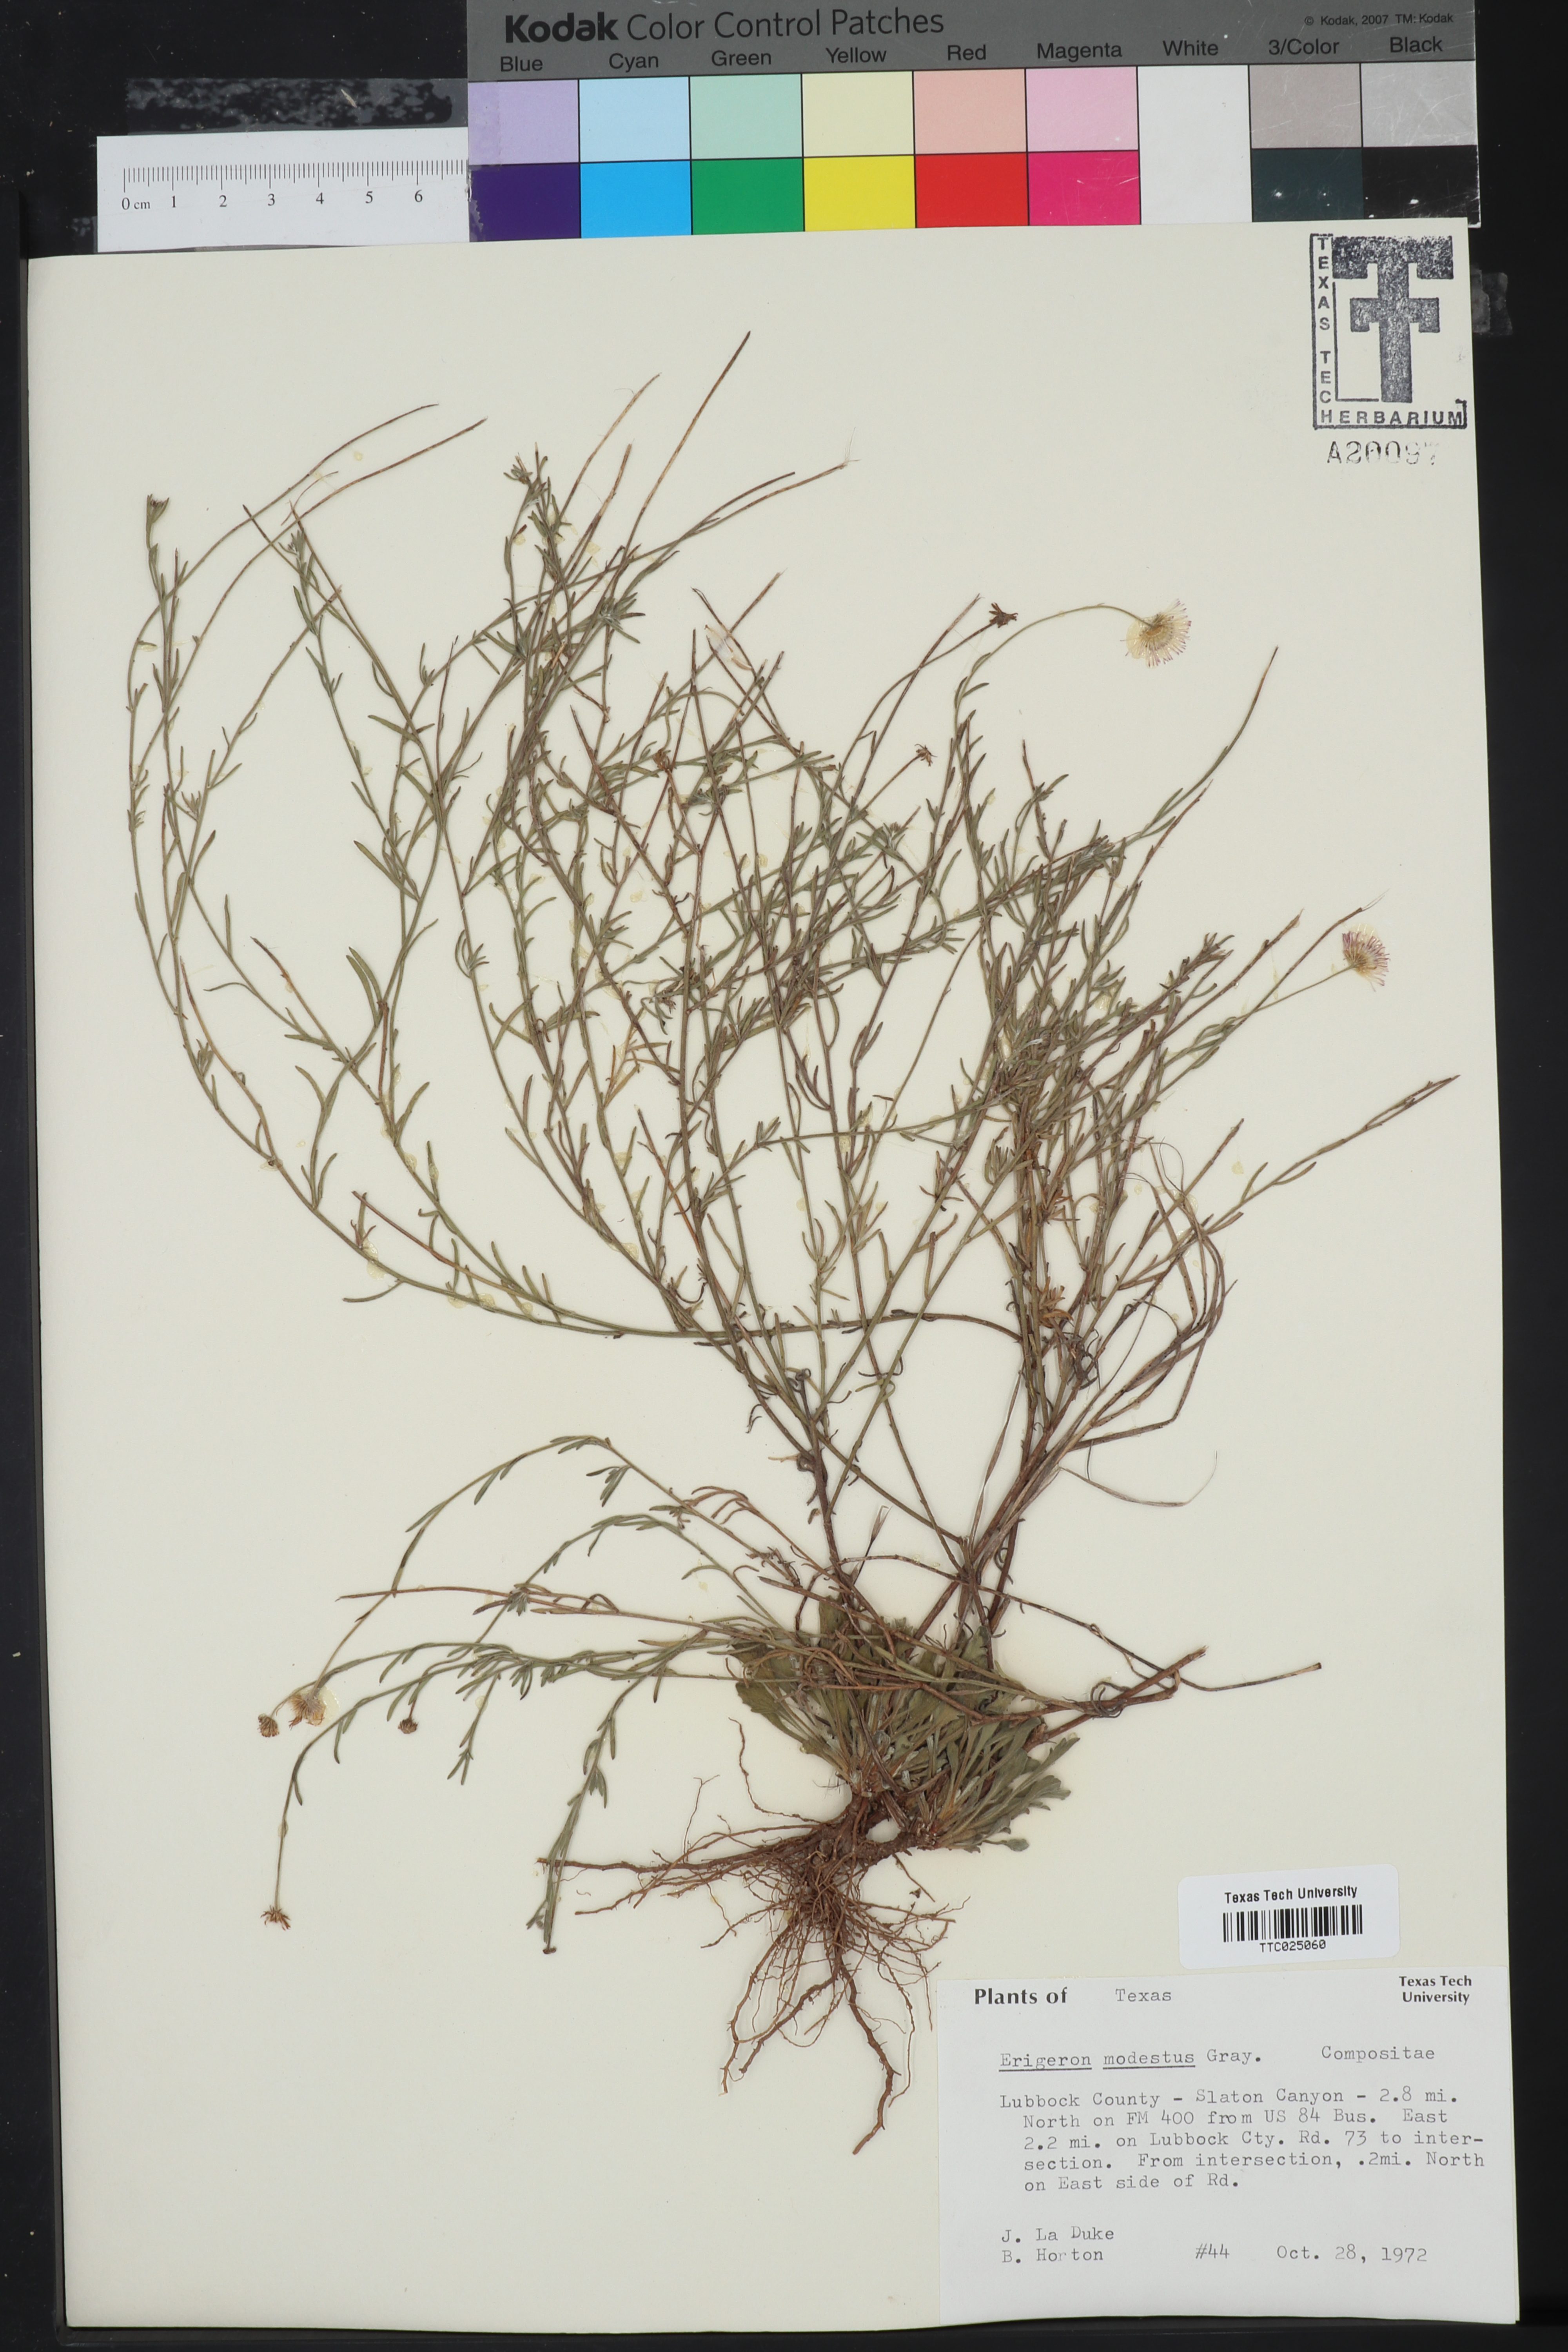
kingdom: Plantae
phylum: Tracheophyta
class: Magnoliopsida
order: Asterales
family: Asteraceae
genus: Erigeron
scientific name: Erigeron modestus
